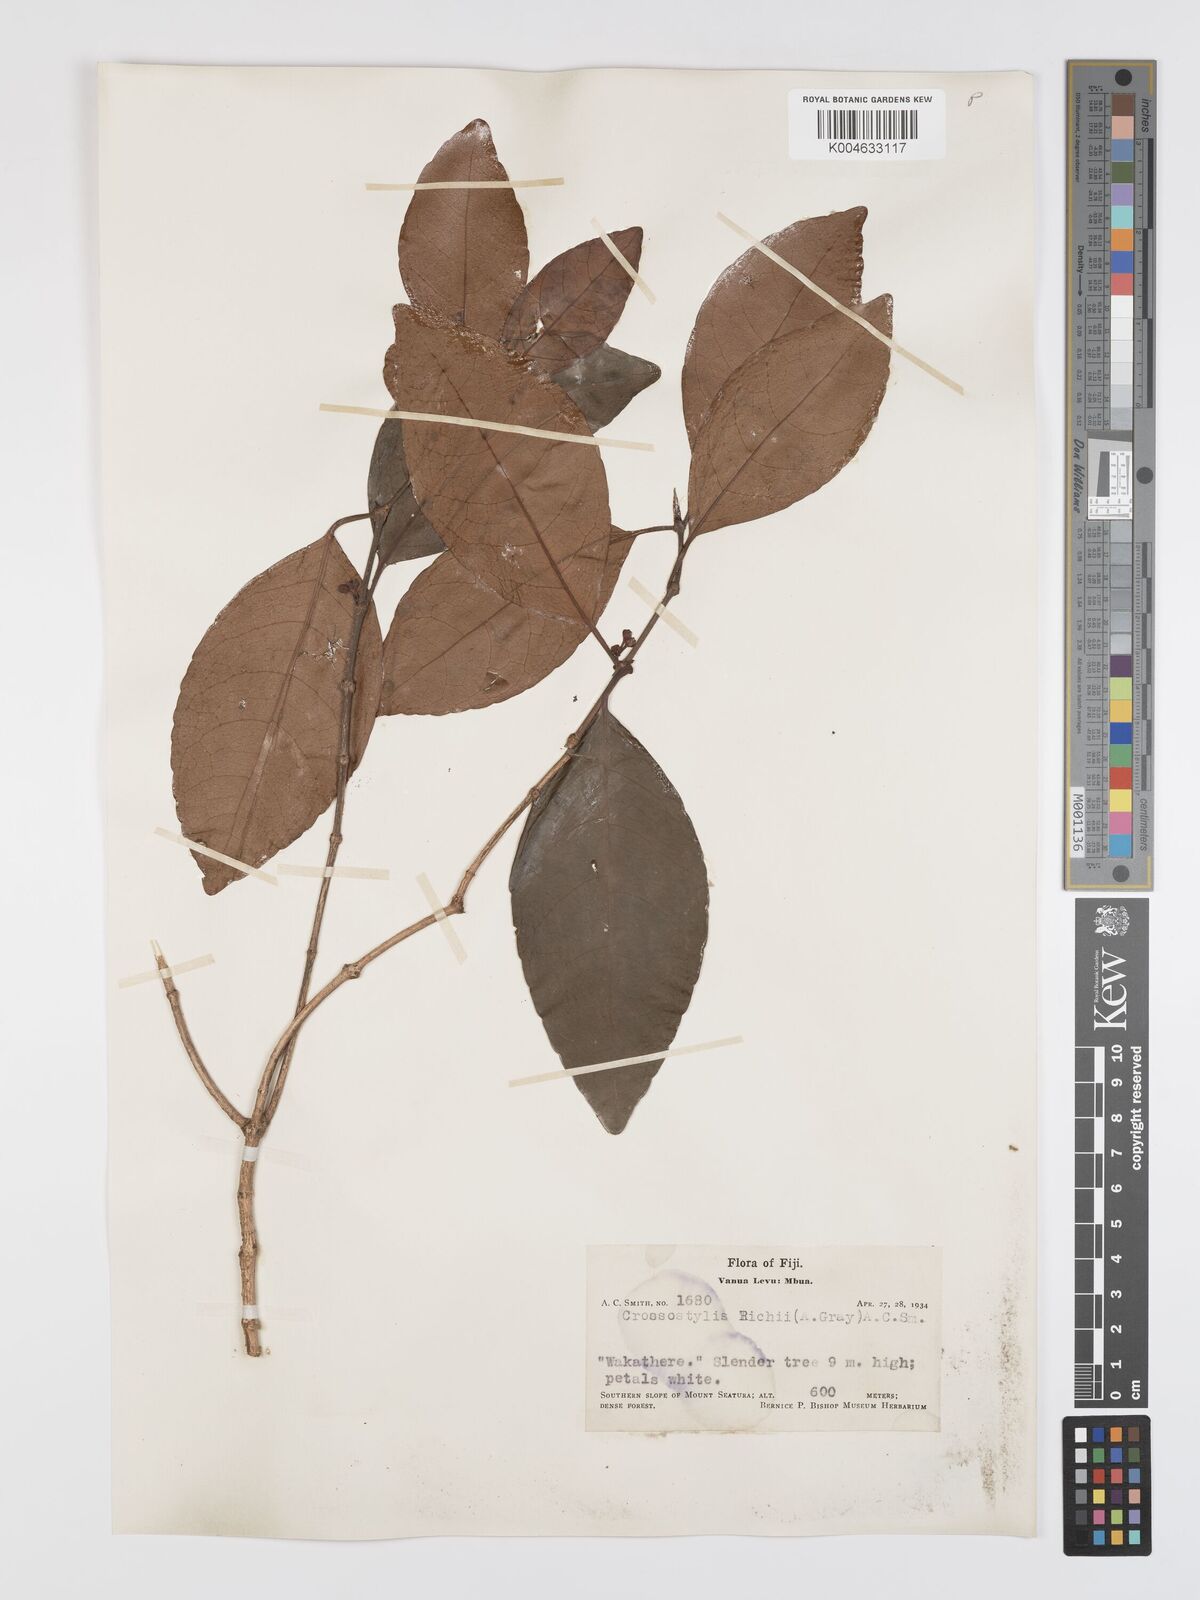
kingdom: Plantae
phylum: Tracheophyta
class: Magnoliopsida
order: Malpighiales
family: Rhizophoraceae
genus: Crossostylis
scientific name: Crossostylis richii
